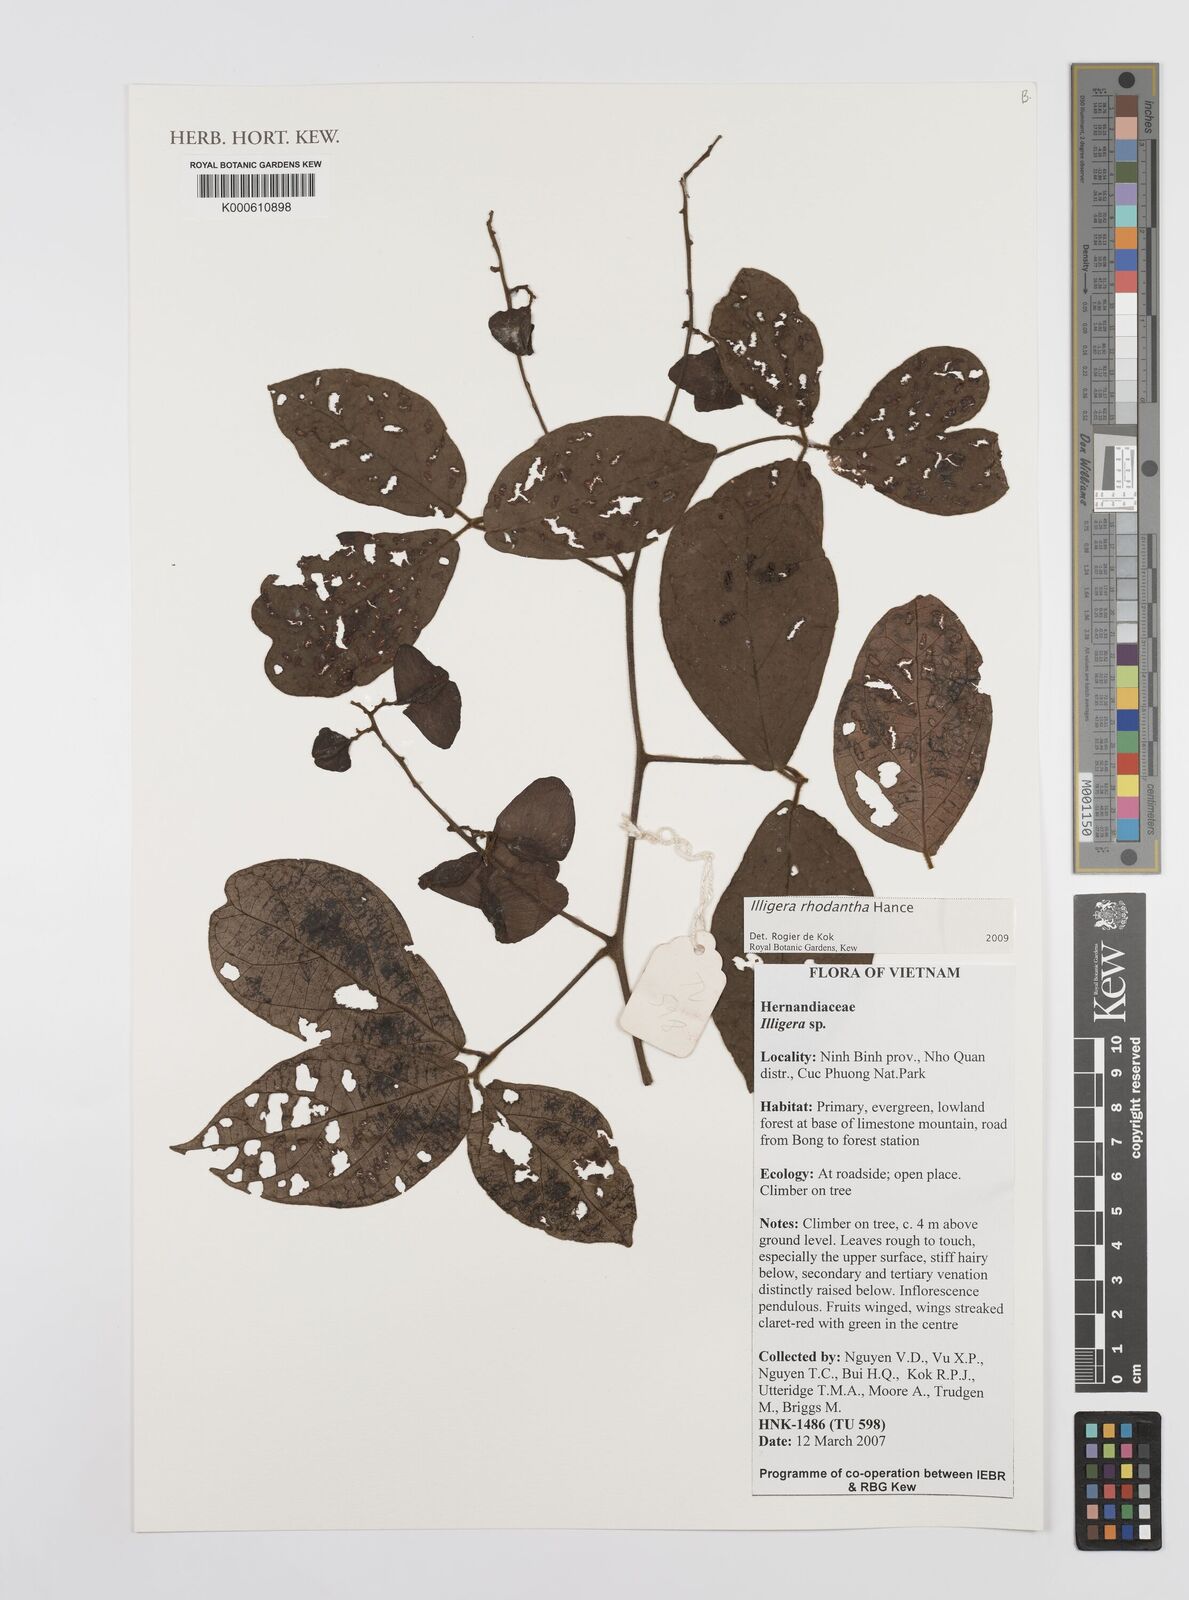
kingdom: Plantae
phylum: Tracheophyta
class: Magnoliopsida
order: Laurales
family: Hernandiaceae
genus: Illigera
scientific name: Illigera rhodantha
